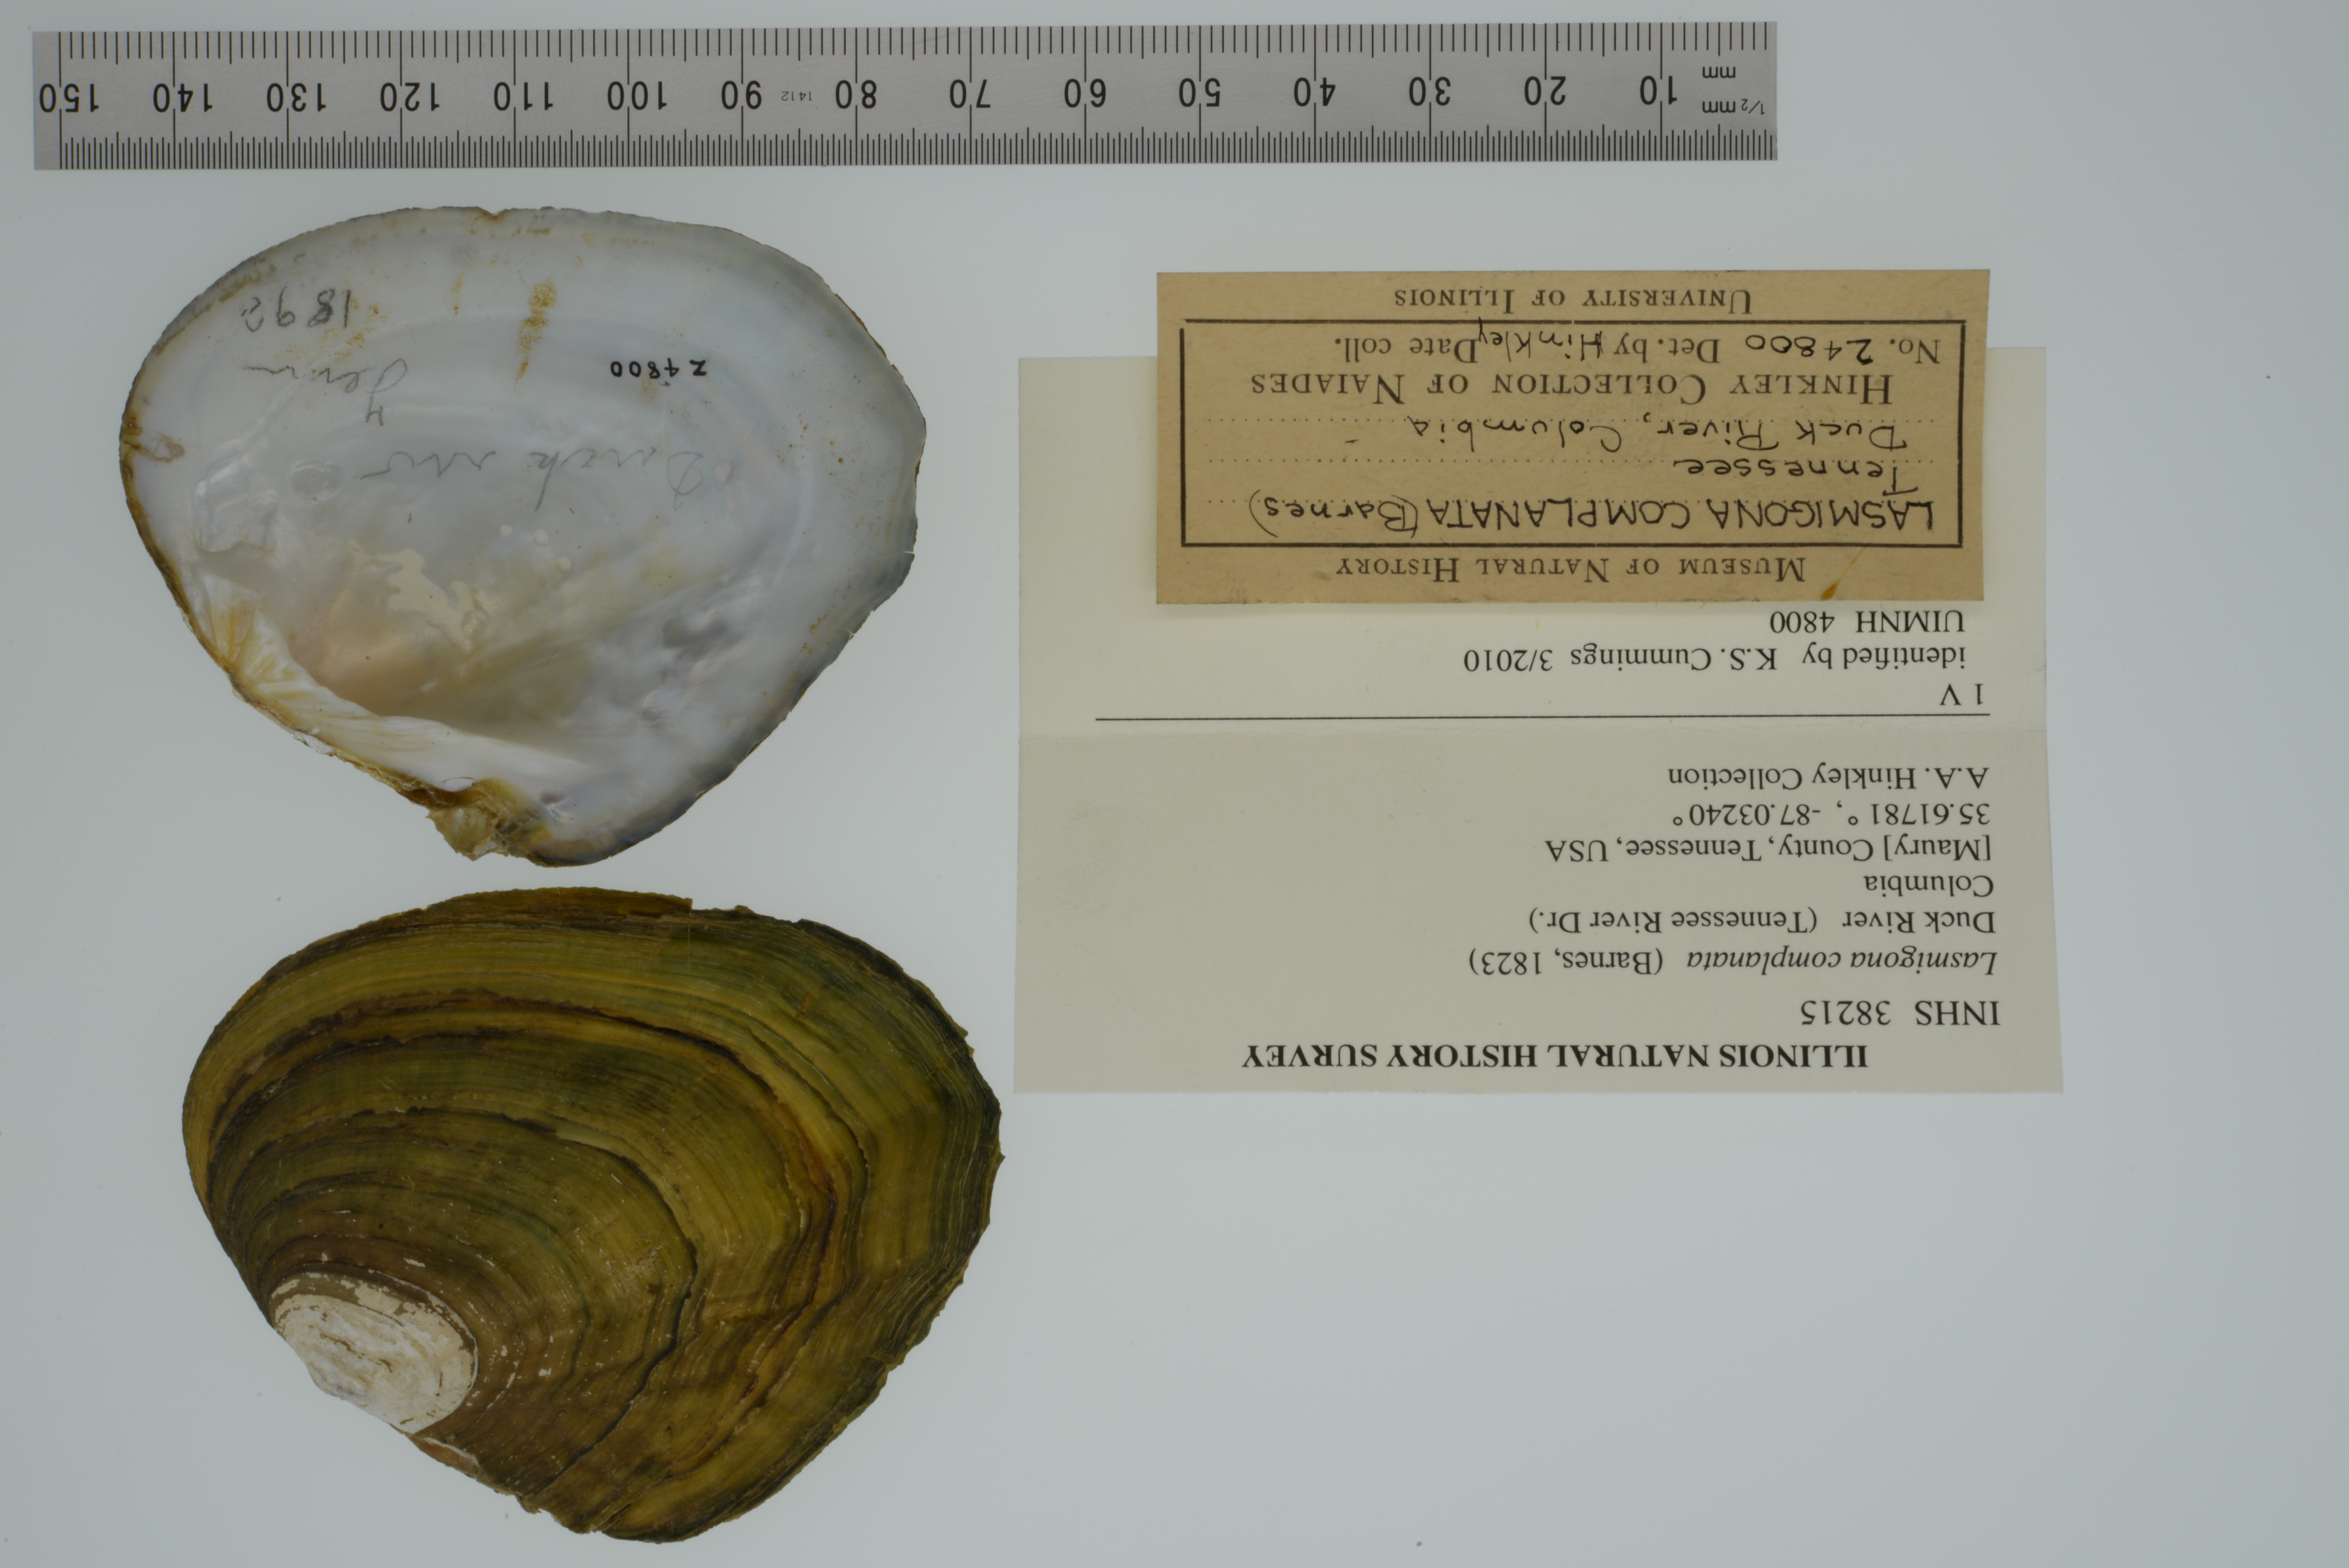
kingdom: Animalia
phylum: Mollusca
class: Bivalvia
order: Unionida
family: Unionidae
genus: Lasmigona
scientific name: Lasmigona complanata
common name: White heelsplitter
